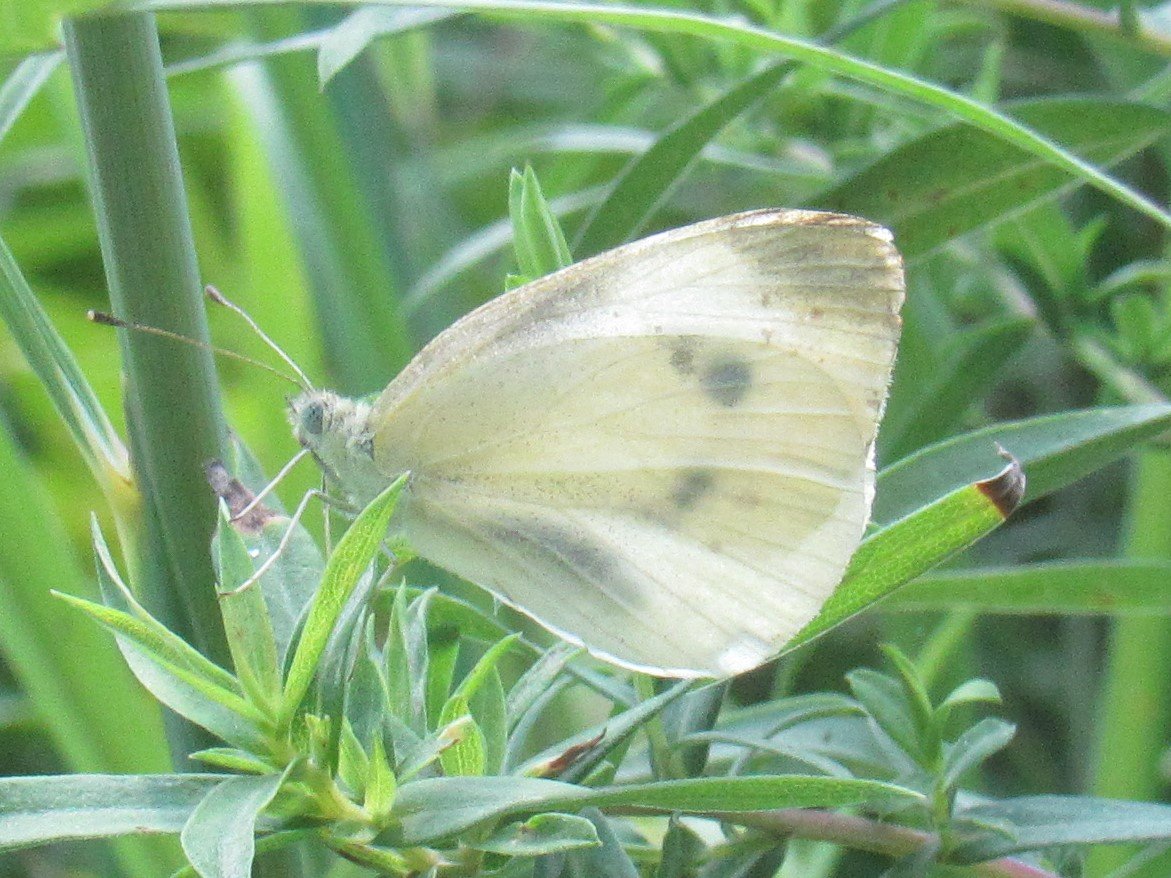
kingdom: Animalia
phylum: Arthropoda
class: Insecta
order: Lepidoptera
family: Pieridae
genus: Pieris
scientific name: Pieris rapae
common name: Cabbage White
